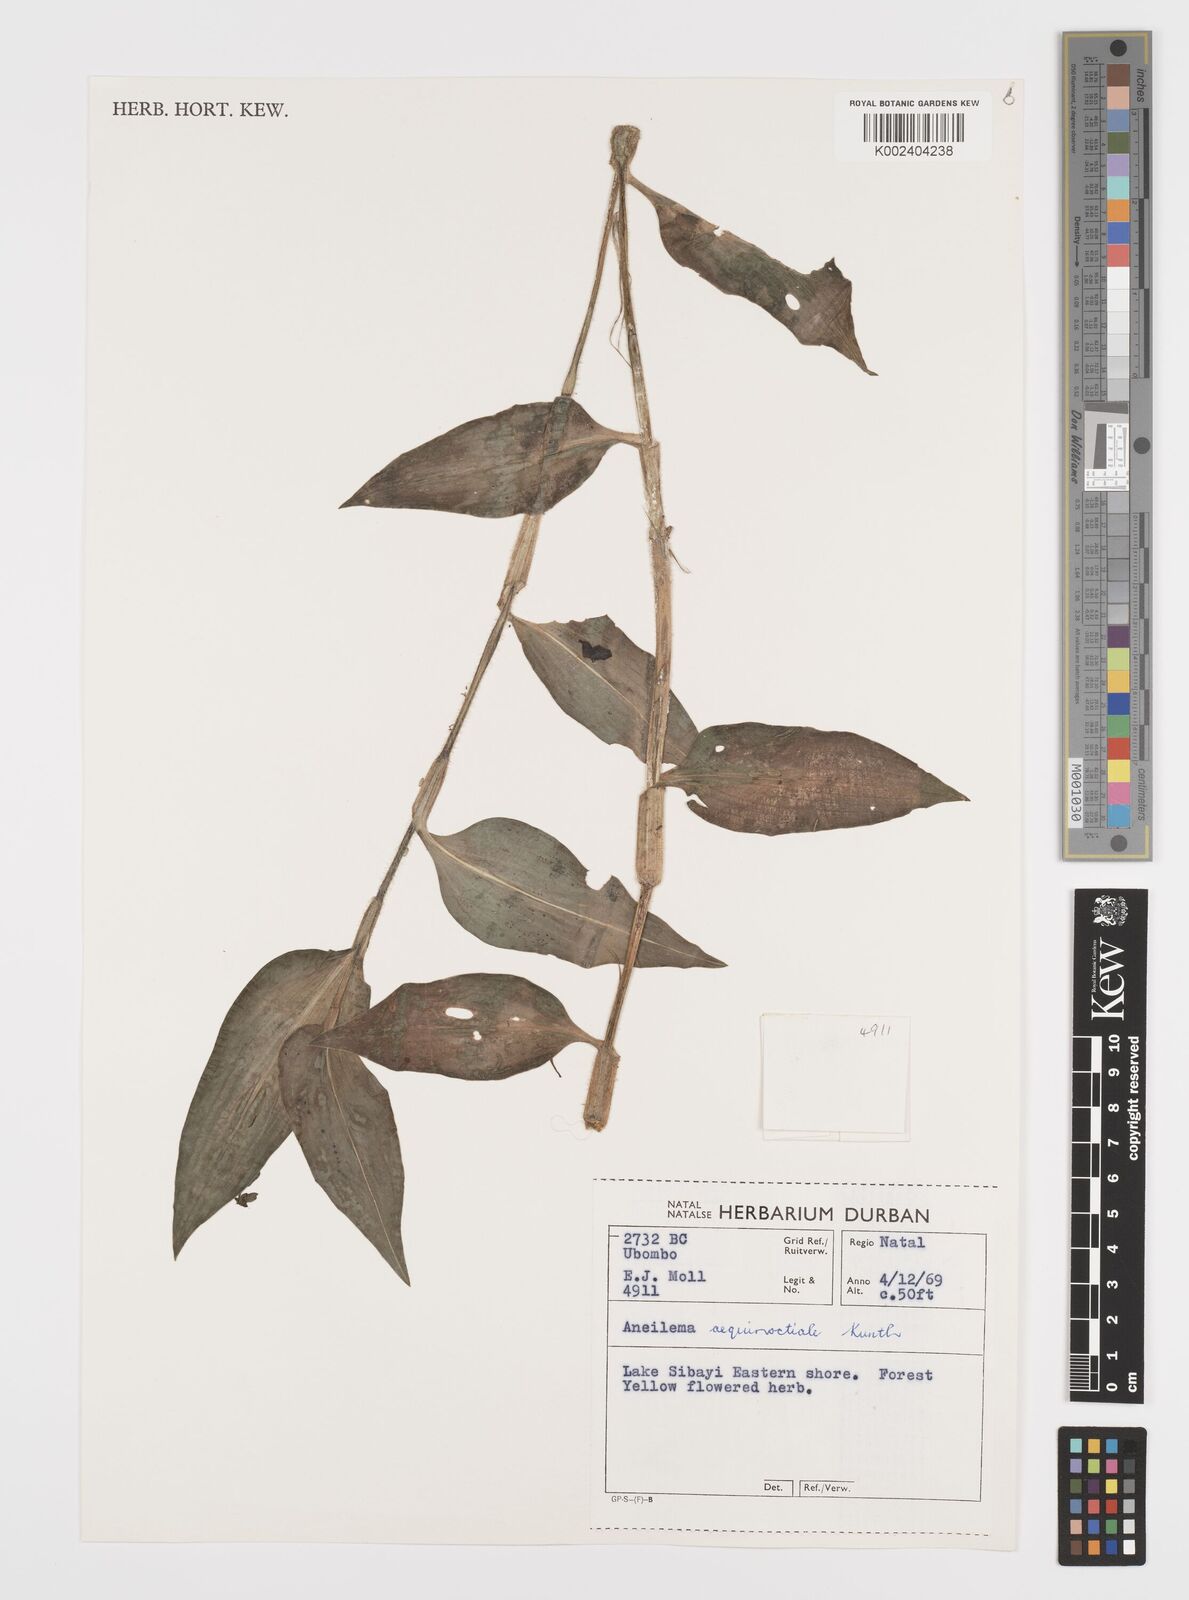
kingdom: Plantae
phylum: Tracheophyta
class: Liliopsida
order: Commelinales
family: Commelinaceae
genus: Aneilema
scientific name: Aneilema aequinoctiale
